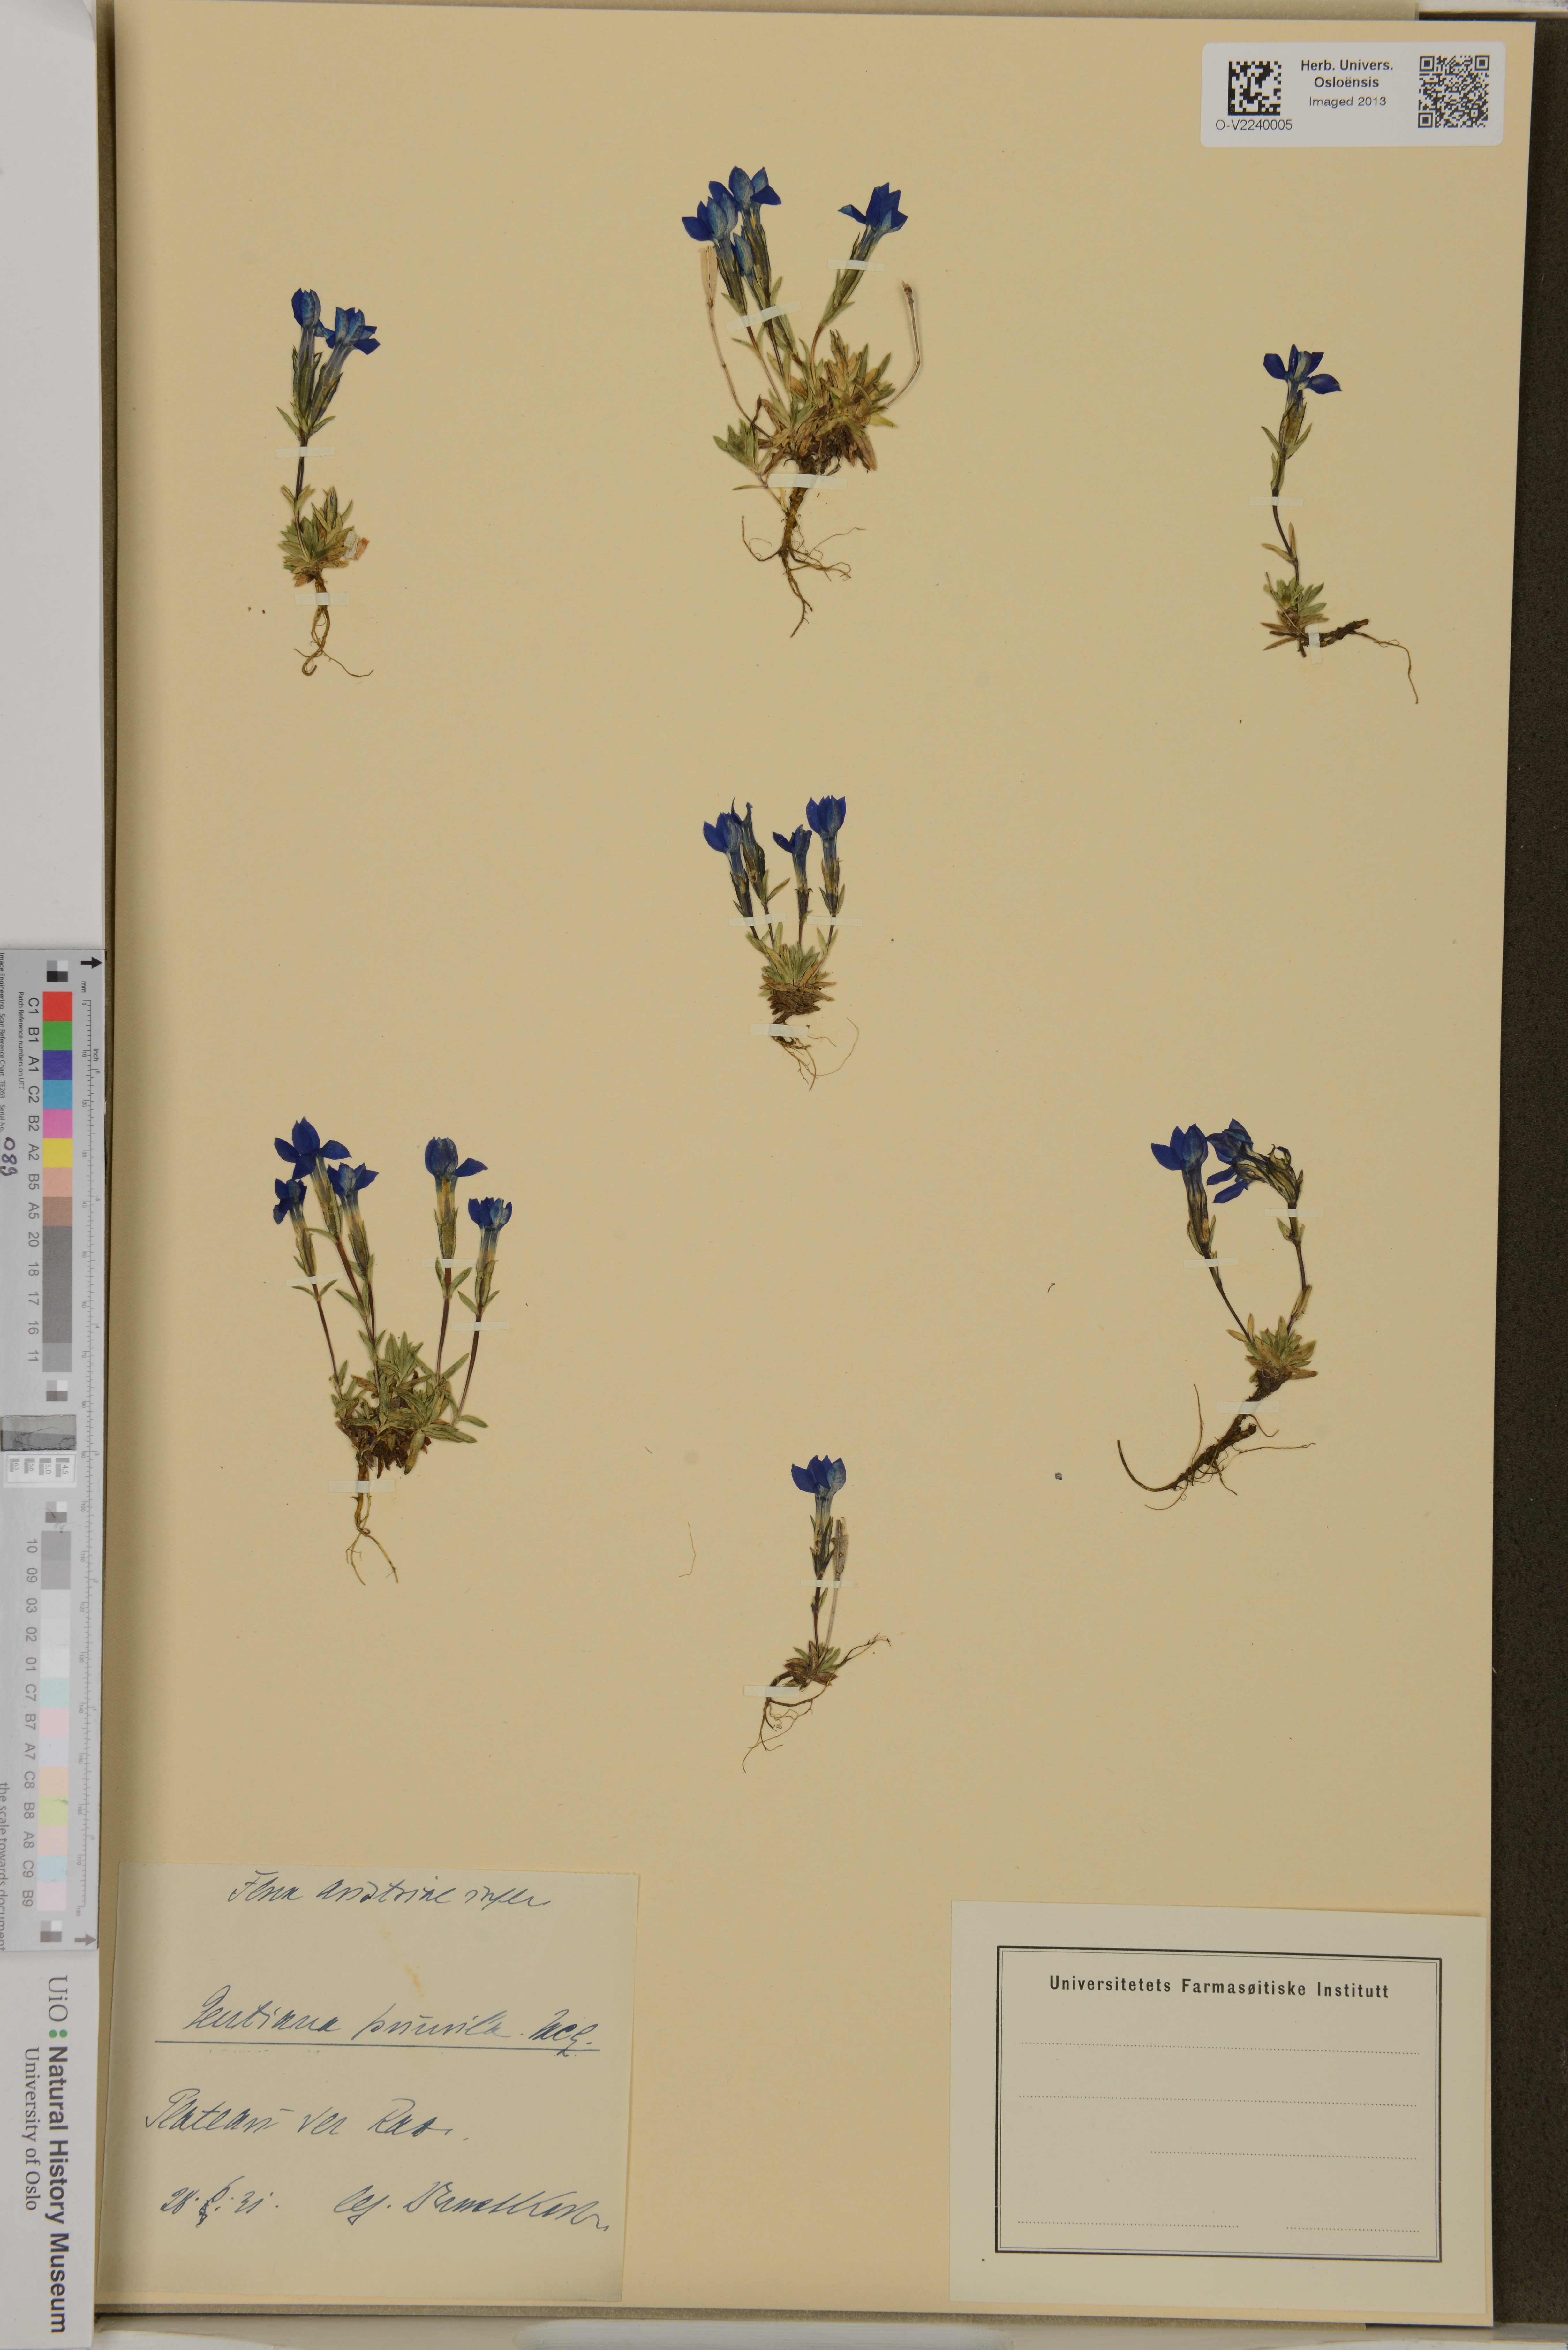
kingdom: Plantae
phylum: Tracheophyta
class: Magnoliopsida
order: Gentianales
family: Gentianaceae
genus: Gentiana
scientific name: Gentiana pumila
